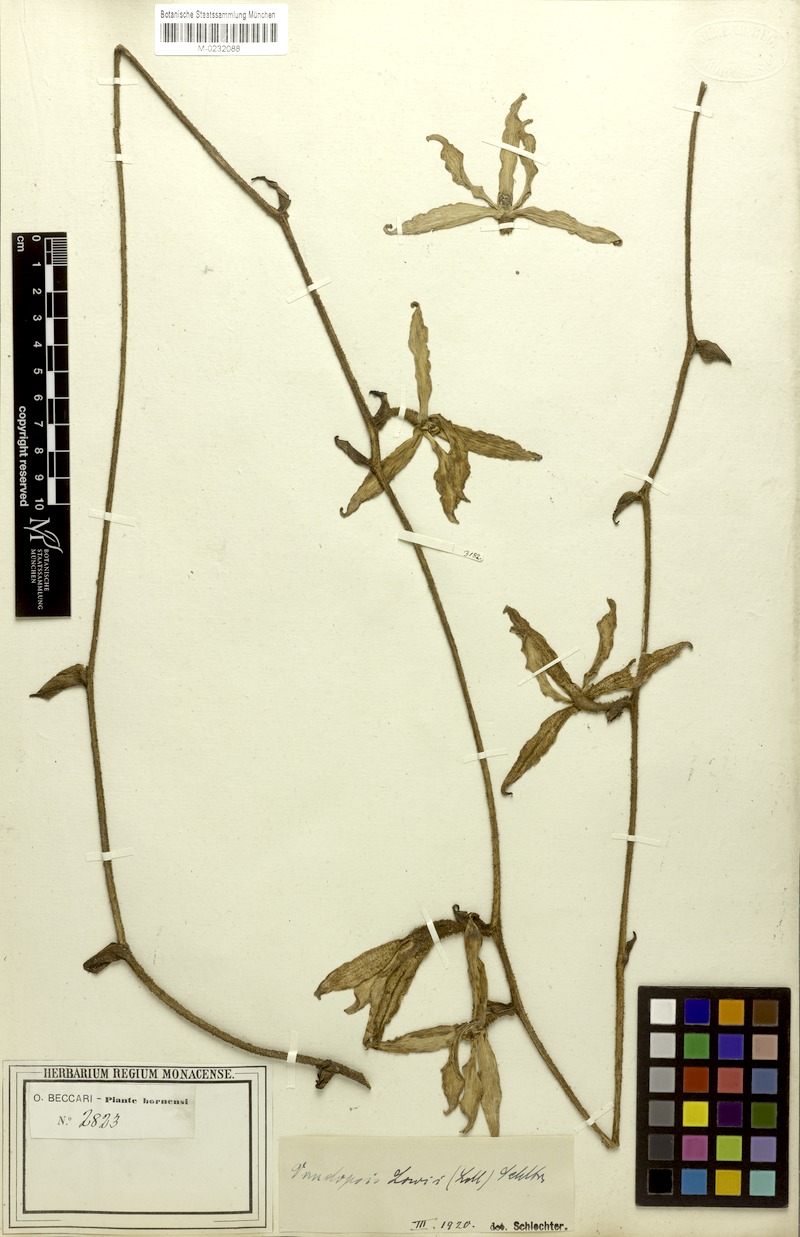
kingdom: Plantae
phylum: Tracheophyta
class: Liliopsida
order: Asparagales
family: Orchidaceae
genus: Dimorphorchis
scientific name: Dimorphorchis lowii
